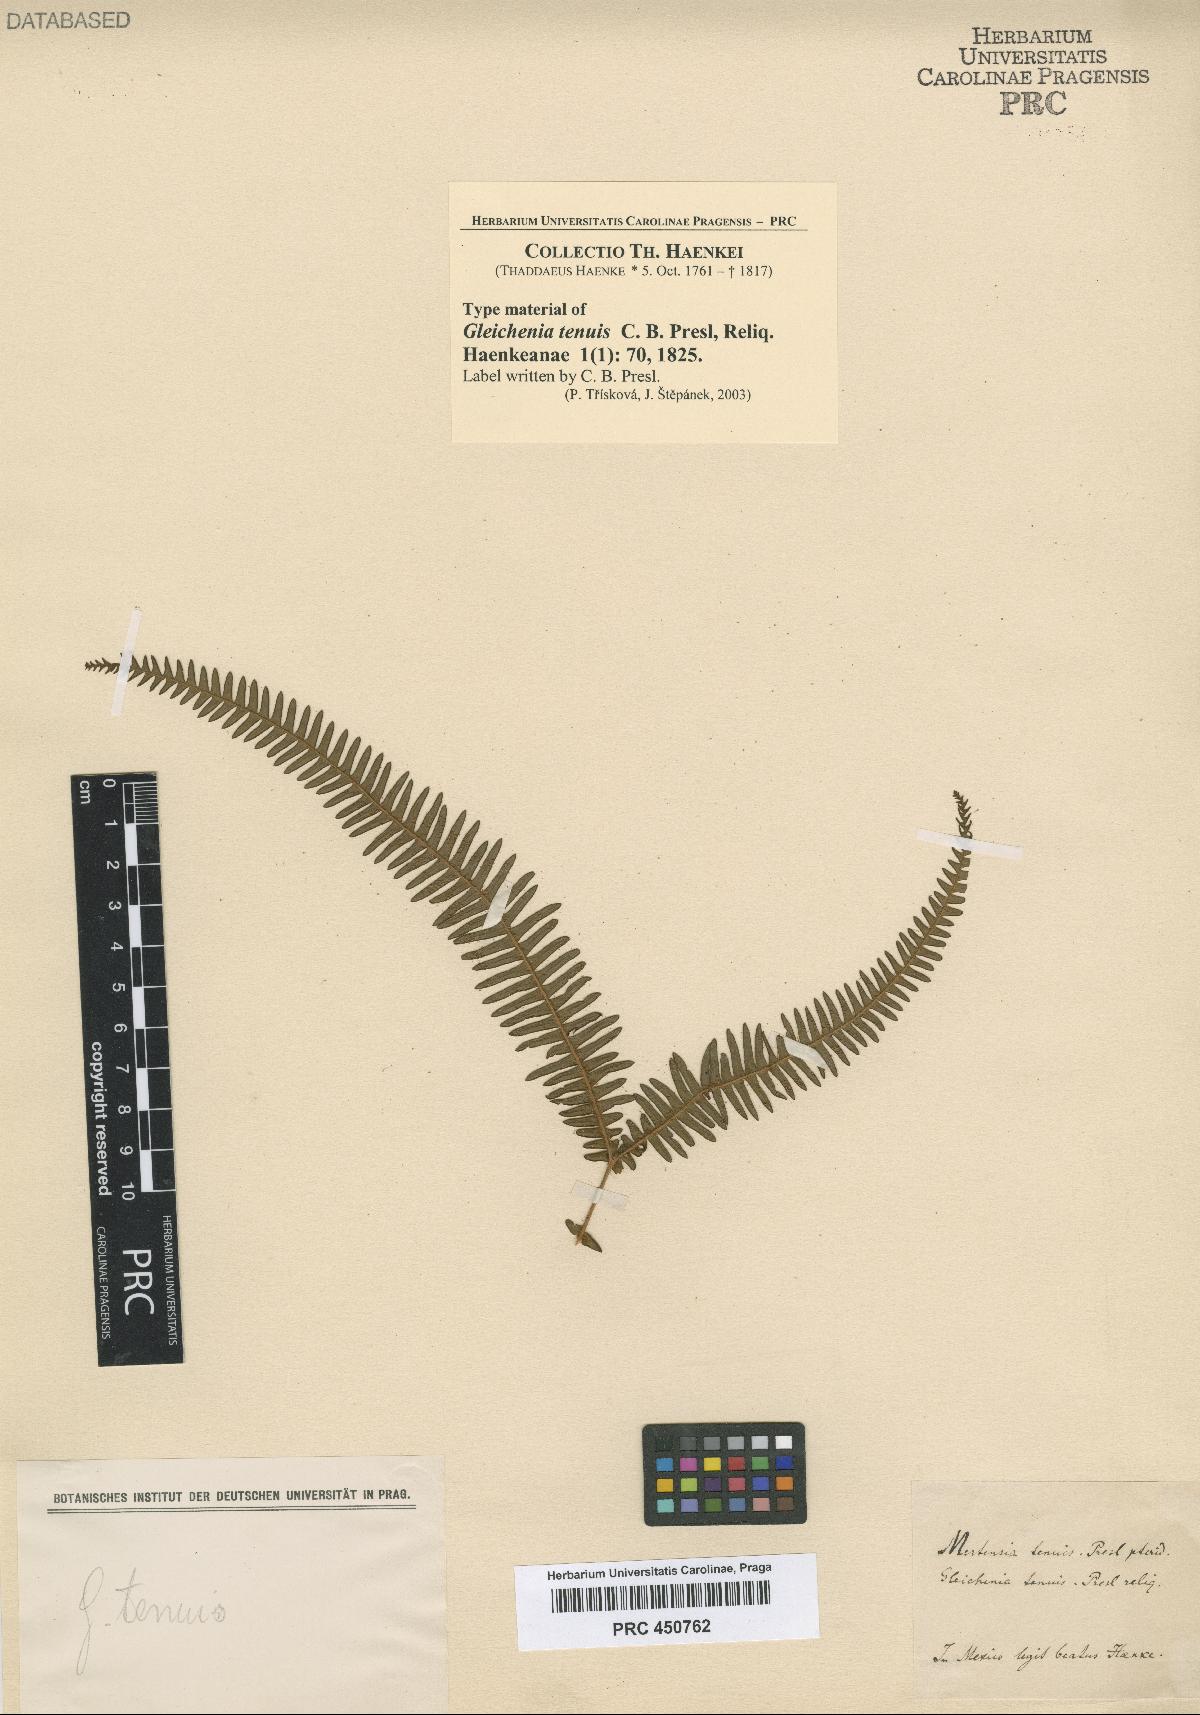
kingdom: Plantae
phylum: Tracheophyta
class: Polypodiopsida
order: Gleicheniales
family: Gleicheniaceae
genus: Gleichenia
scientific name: Gleichenia tenuis
